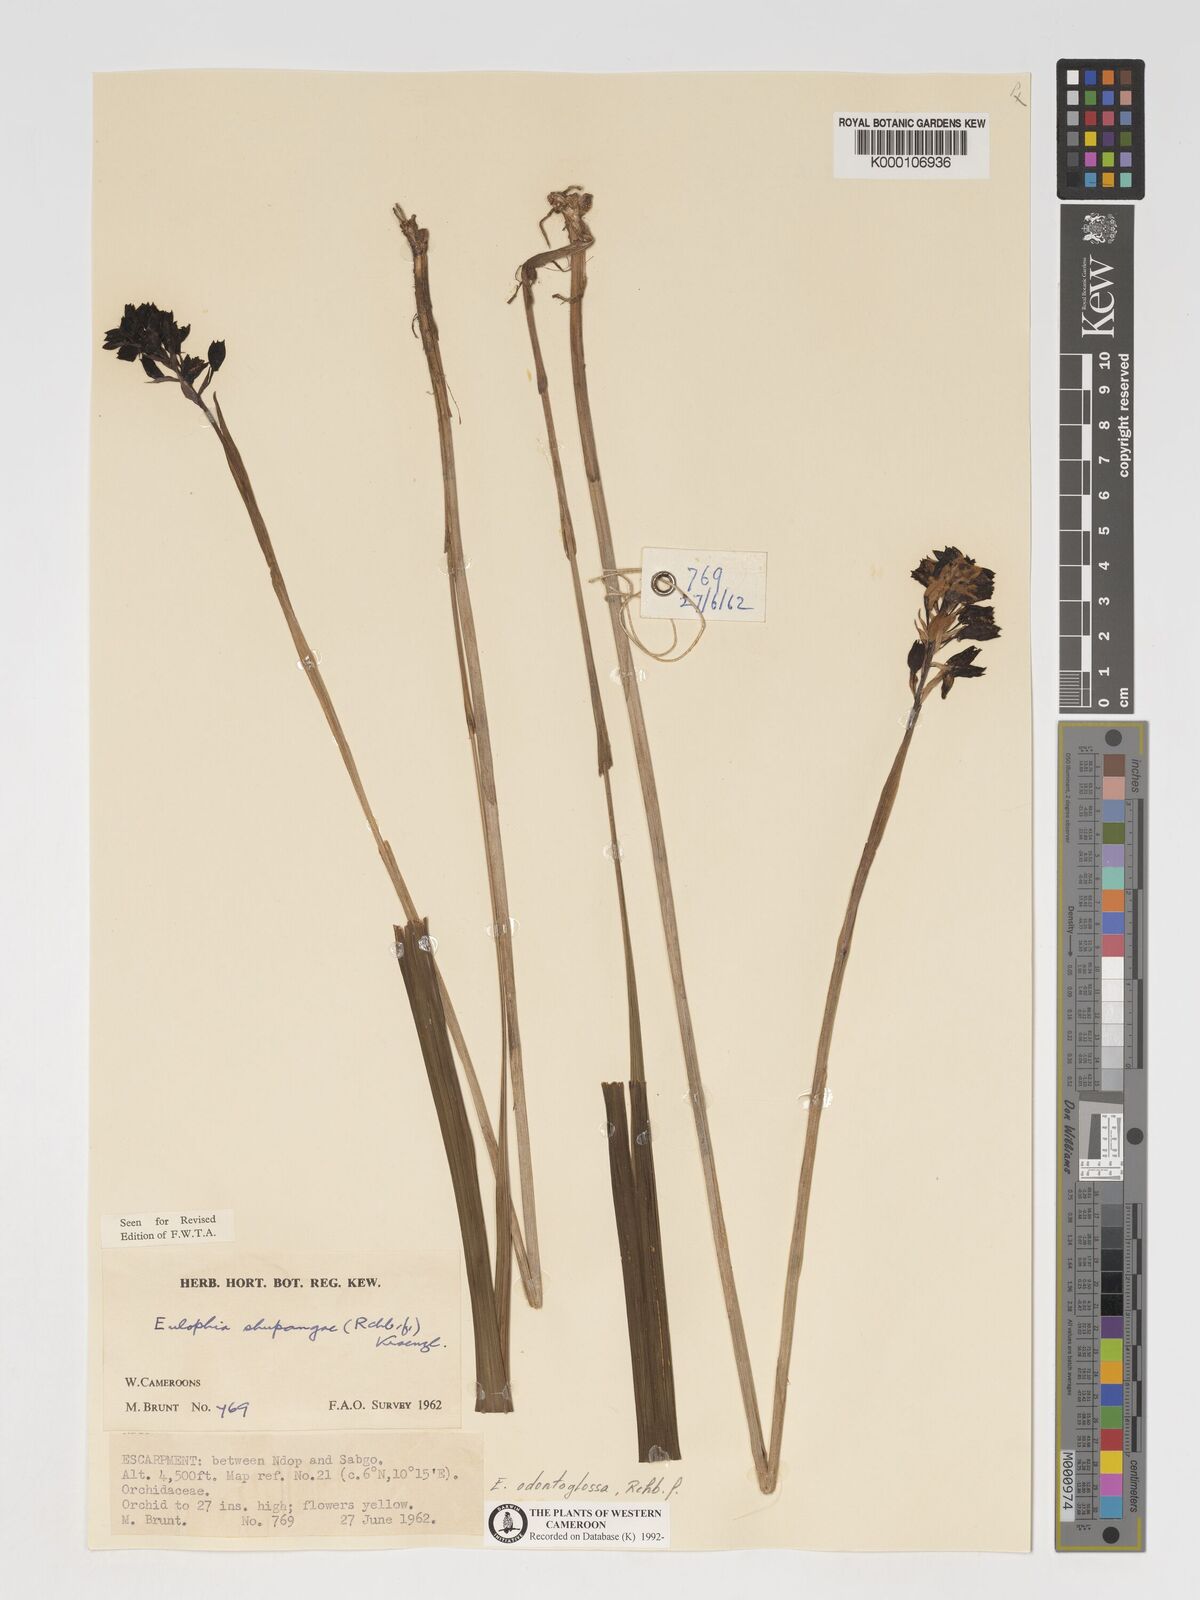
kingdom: Plantae
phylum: Tracheophyta
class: Liliopsida
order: Asparagales
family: Orchidaceae
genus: Eulophia
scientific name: Eulophia odontoglossa
